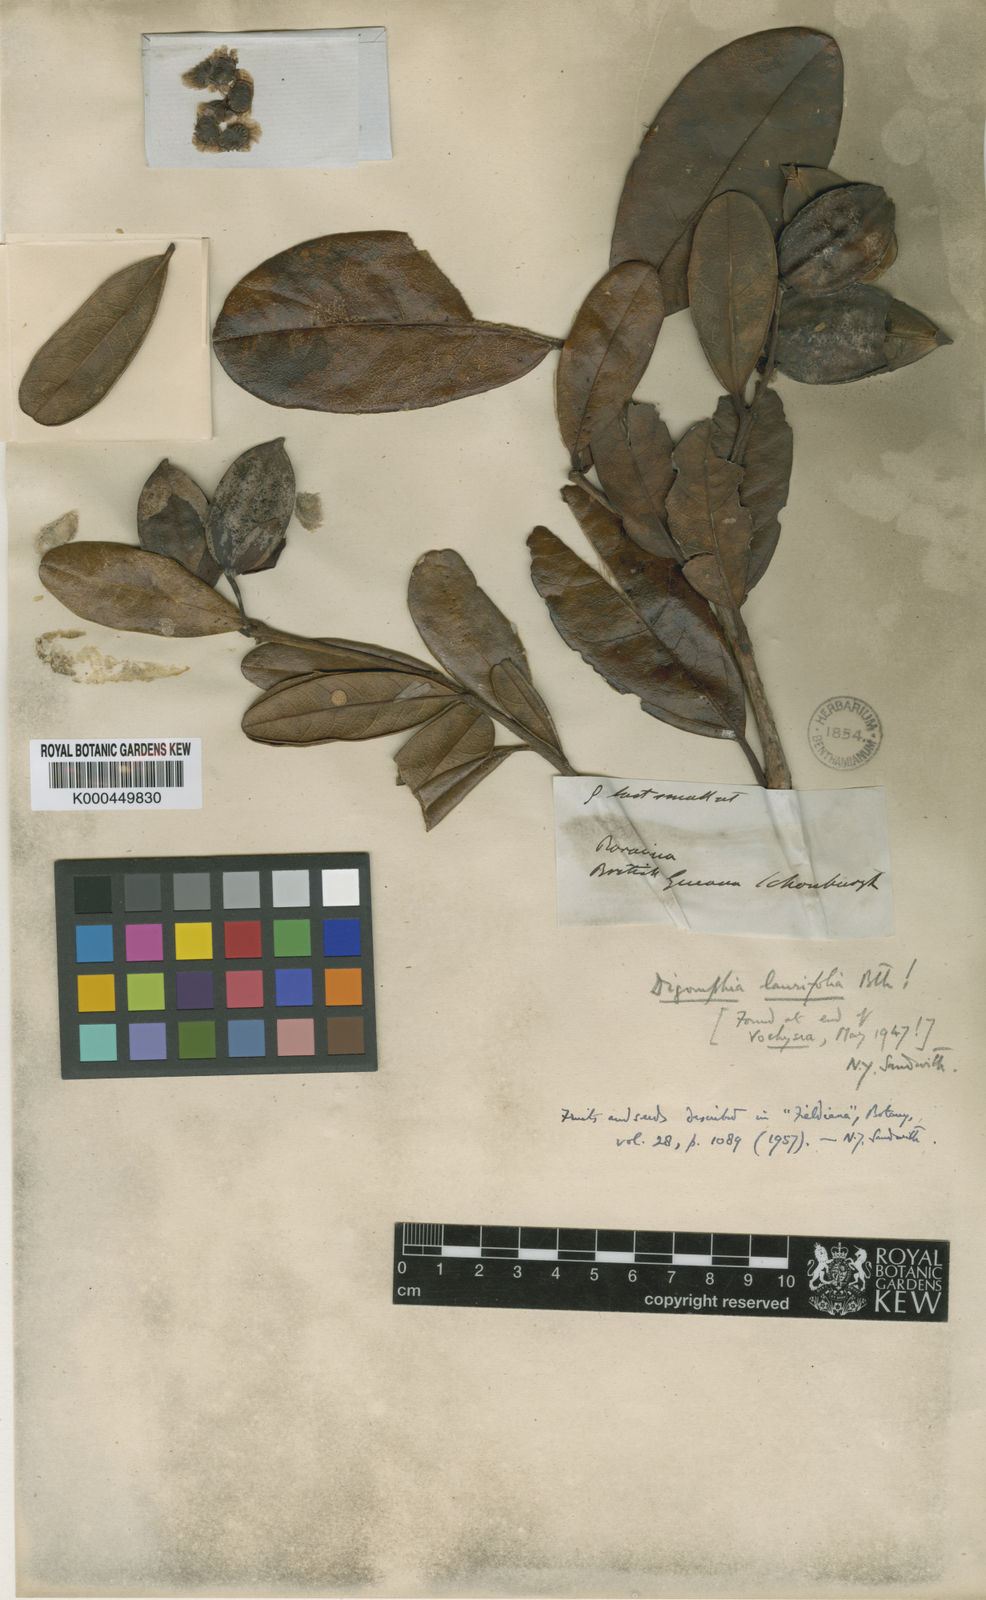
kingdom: Plantae
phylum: Tracheophyta
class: Magnoliopsida
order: Lamiales
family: Bignoniaceae
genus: Digomphia
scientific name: Digomphia laurifolia
